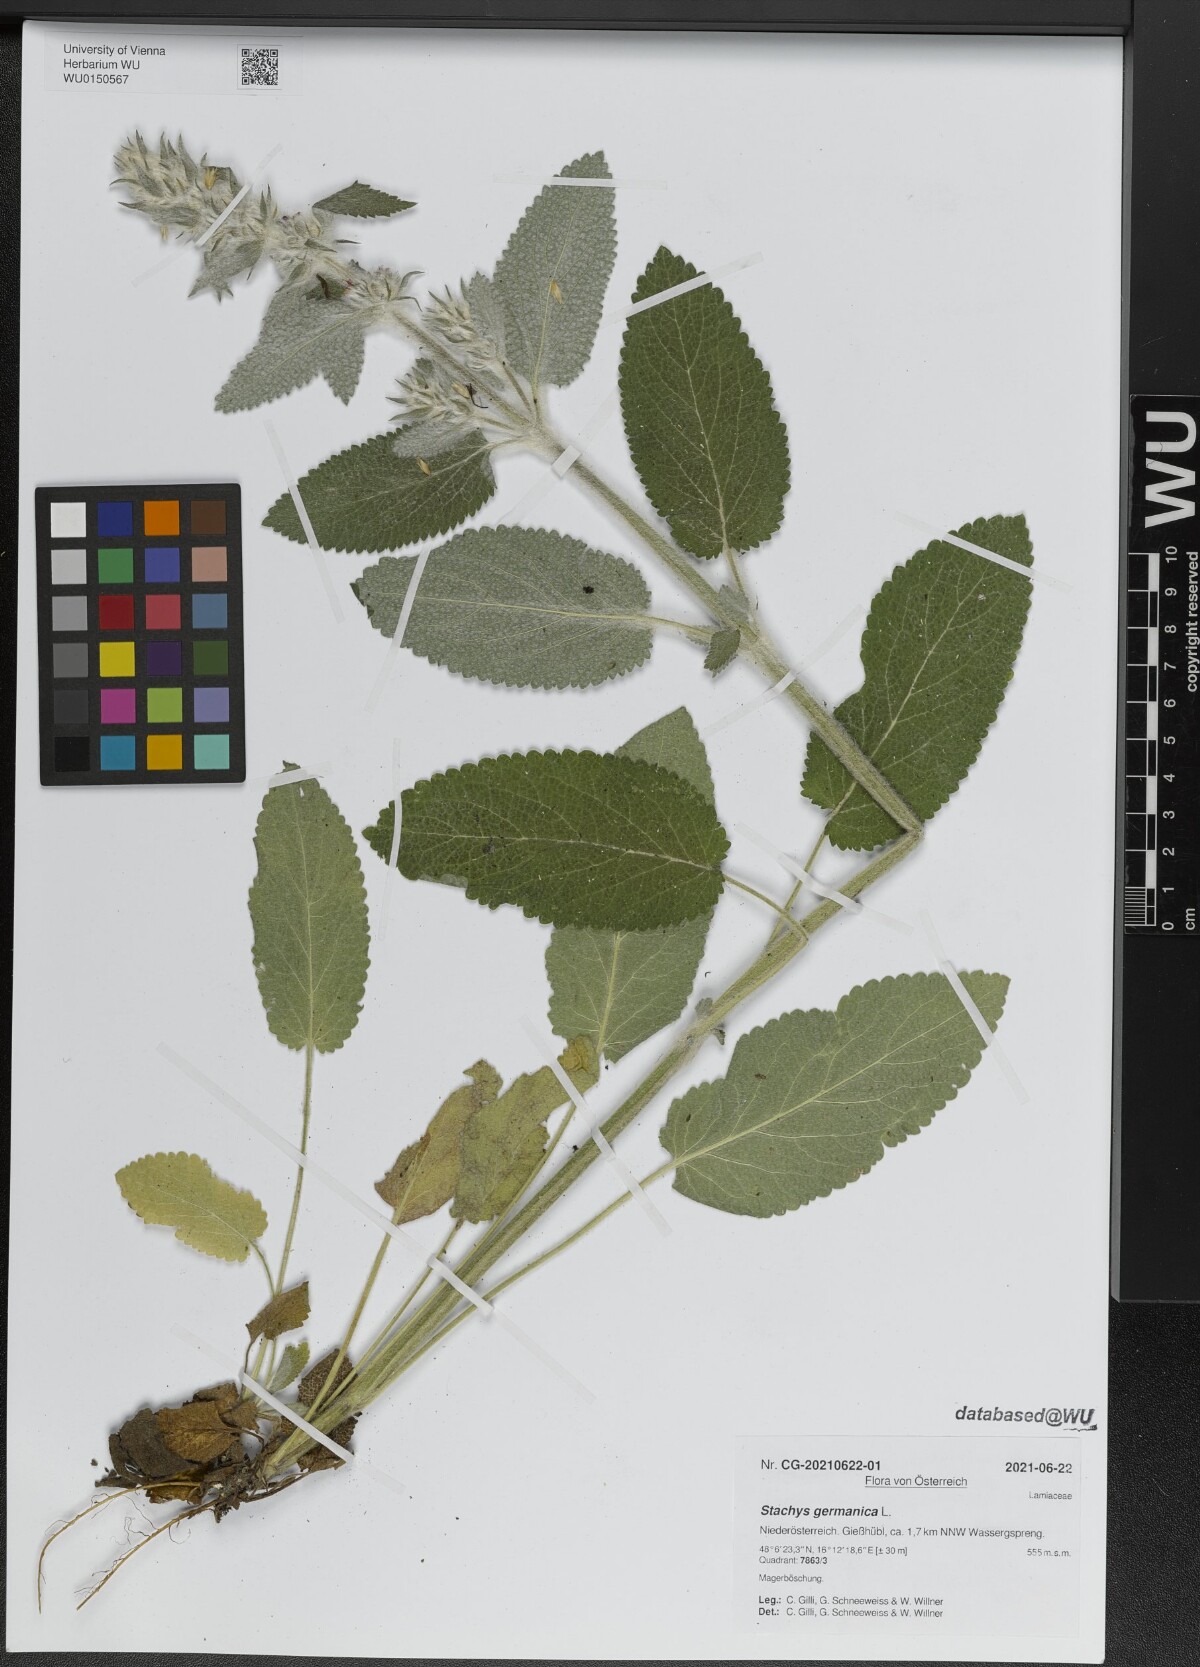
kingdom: Plantae
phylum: Tracheophyta
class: Magnoliopsida
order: Lamiales
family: Lamiaceae
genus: Stachys
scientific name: Stachys germanica
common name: Downy woundwort
